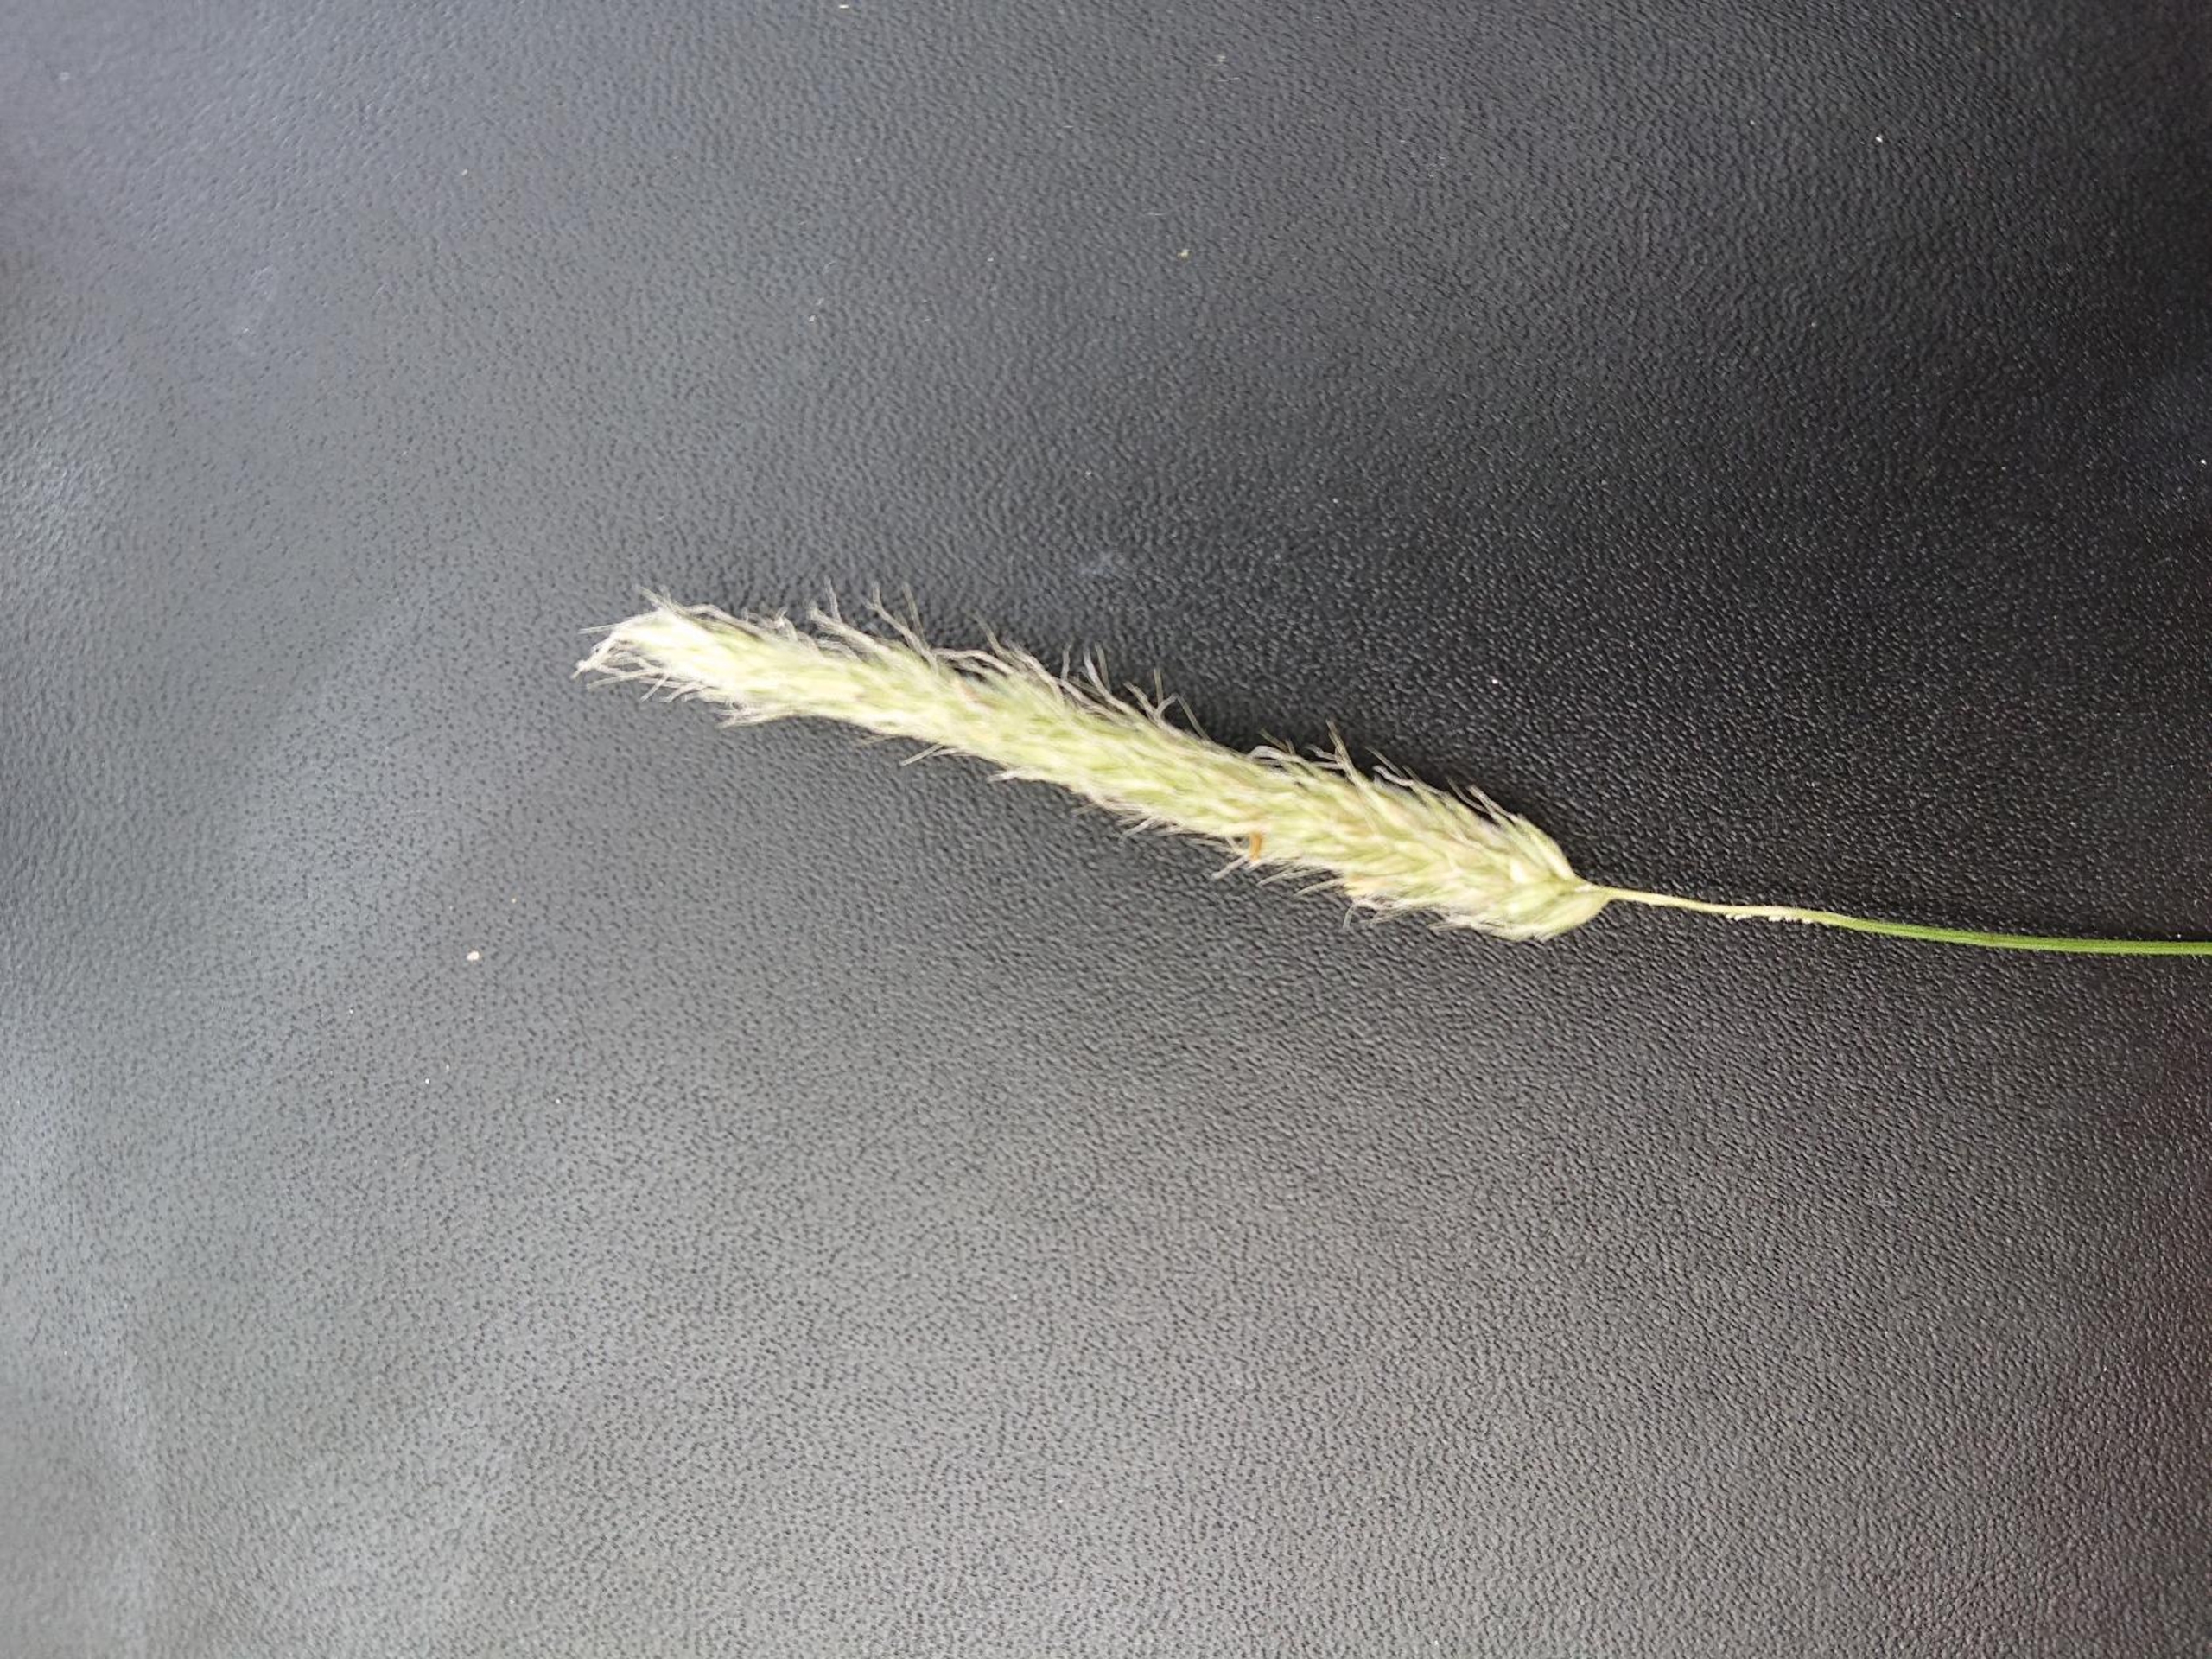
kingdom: Plantae
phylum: Tracheophyta
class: Liliopsida
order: Poales
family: Poaceae
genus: Alopecurus
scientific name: Alopecurus geniculatus
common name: Knæbøjet rævehale
